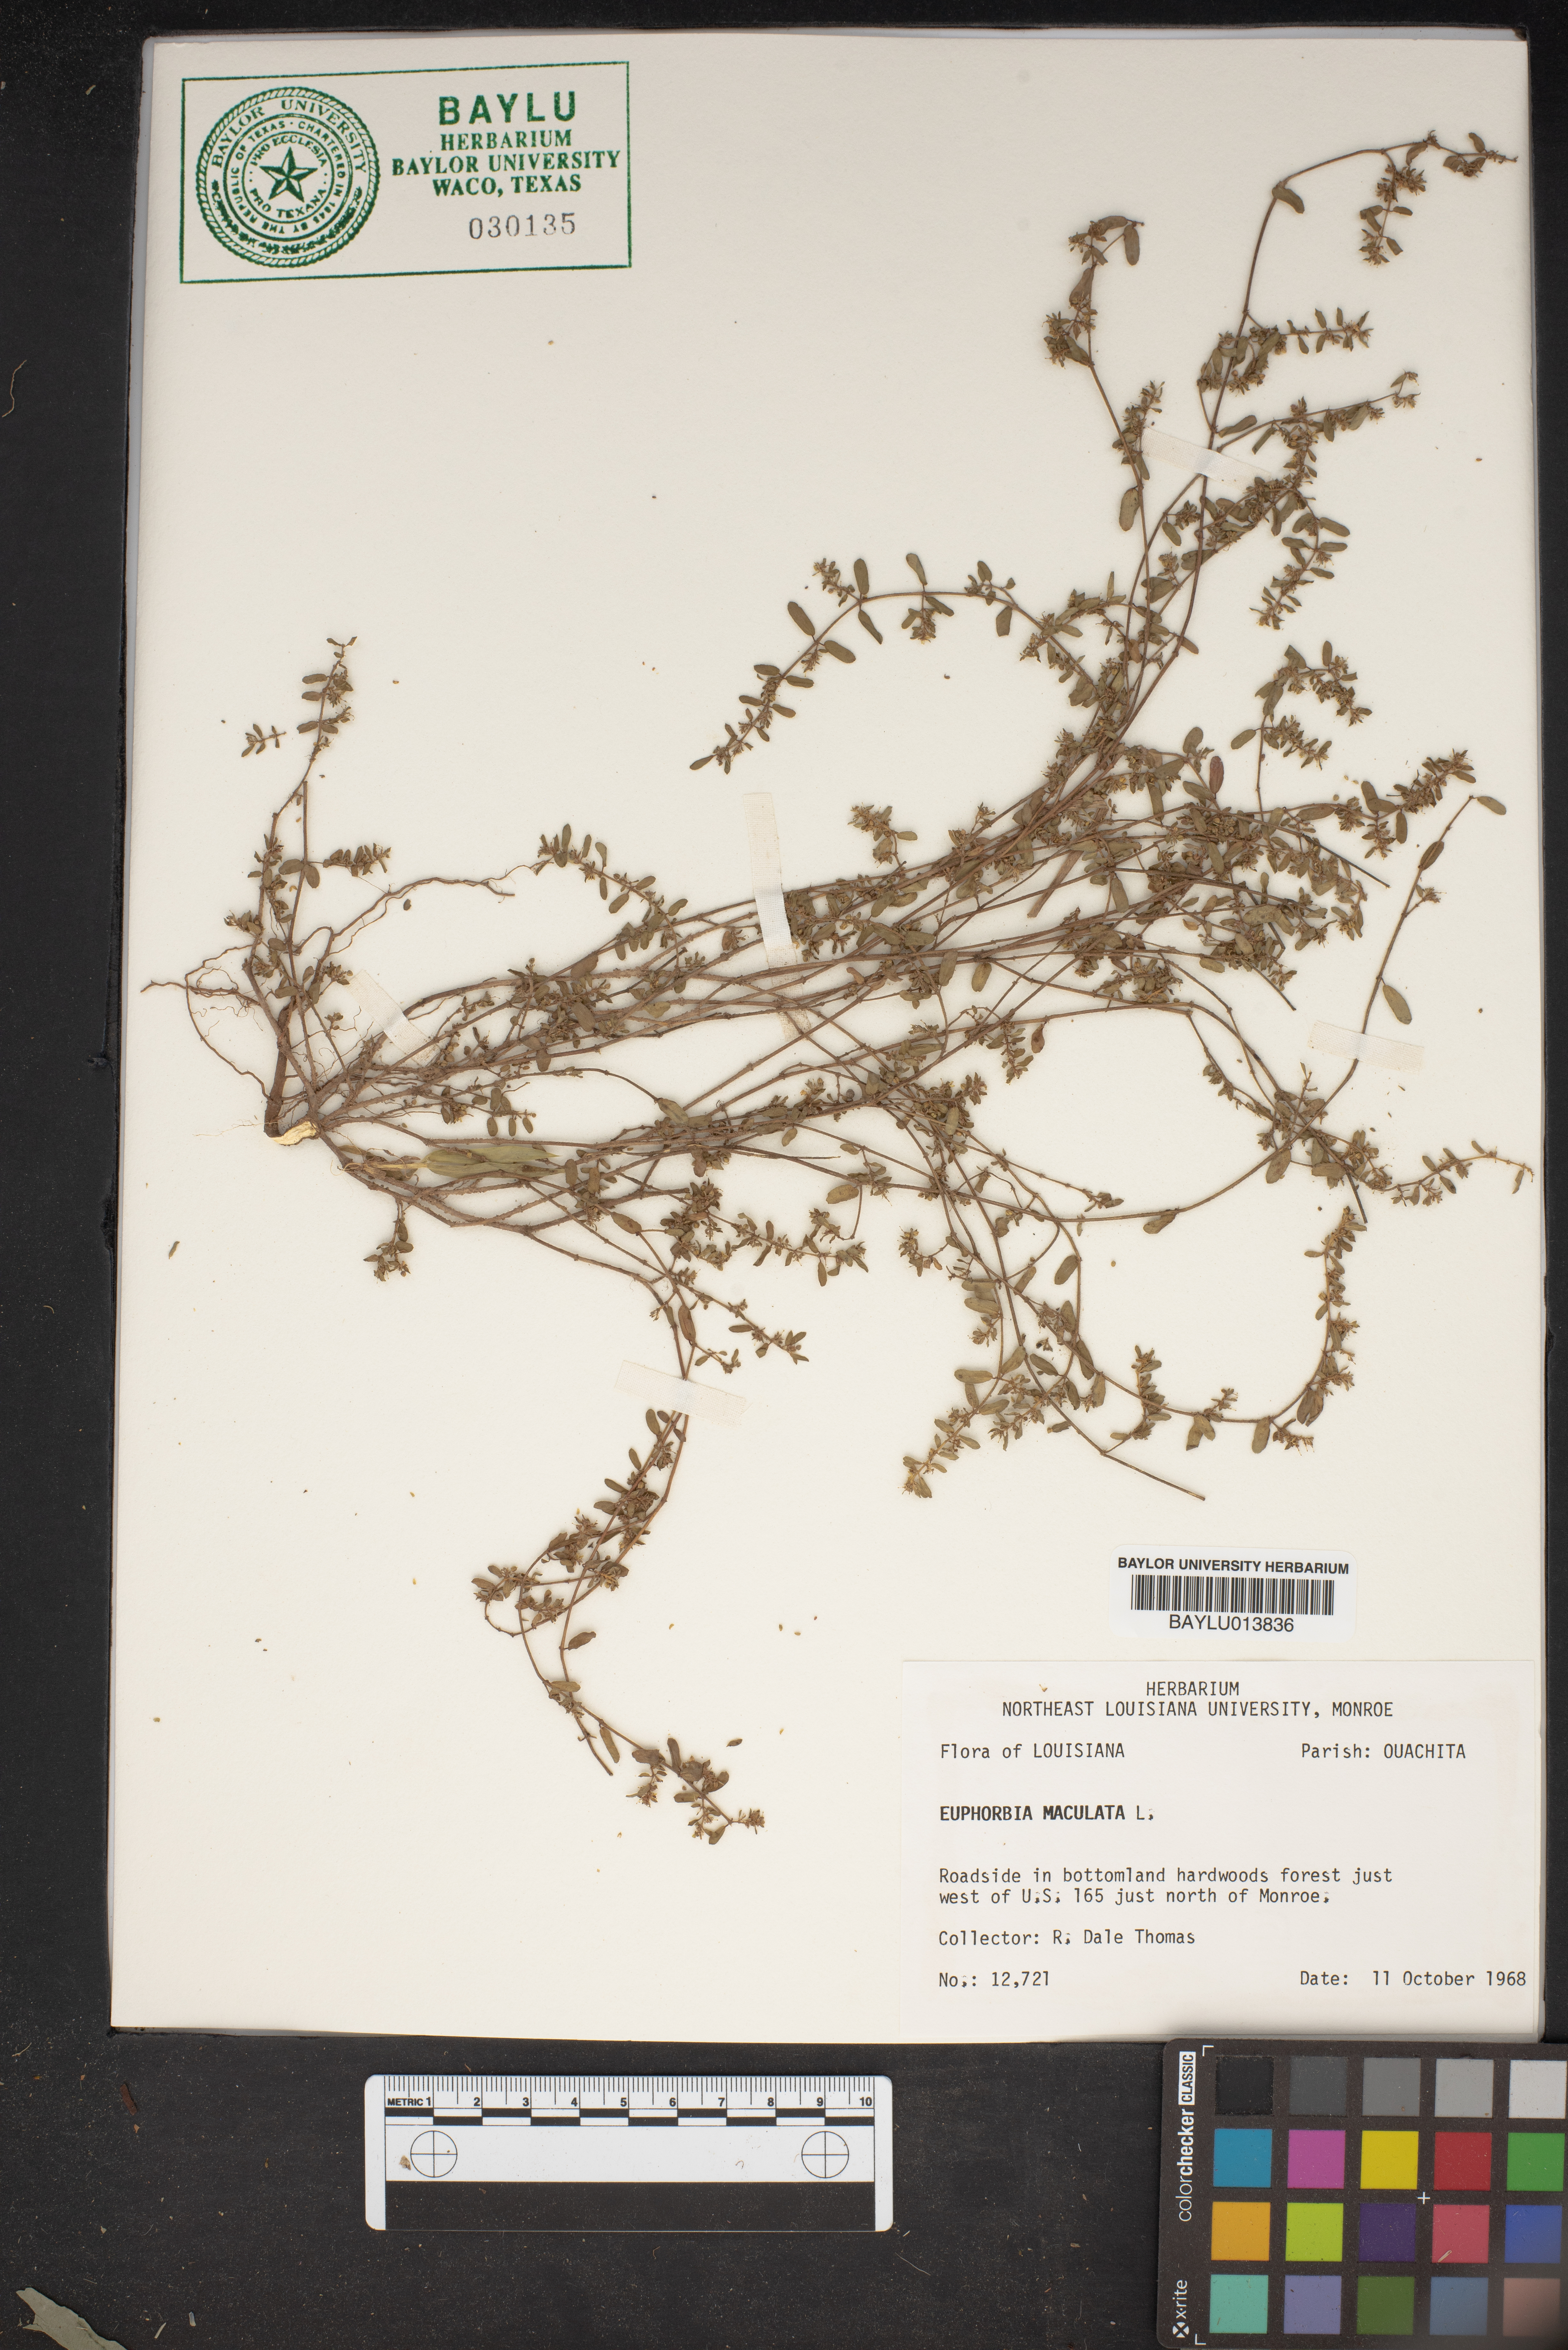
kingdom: Plantae
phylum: Tracheophyta
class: Magnoliopsida
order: Malpighiales
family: Euphorbiaceae
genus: Euphorbia
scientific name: Euphorbia maculata
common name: Spotted spurge
